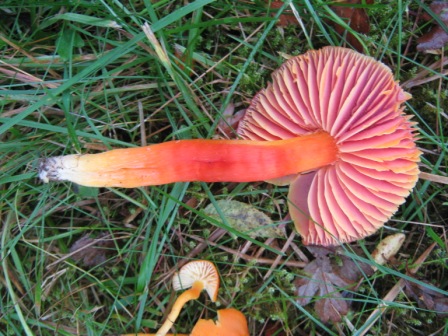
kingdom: Fungi
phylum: Basidiomycota
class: Agaricomycetes
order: Agaricales
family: Hygrophoraceae
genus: Hygrocybe
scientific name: Hygrocybe punicea
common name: skarlagen-vokshat
